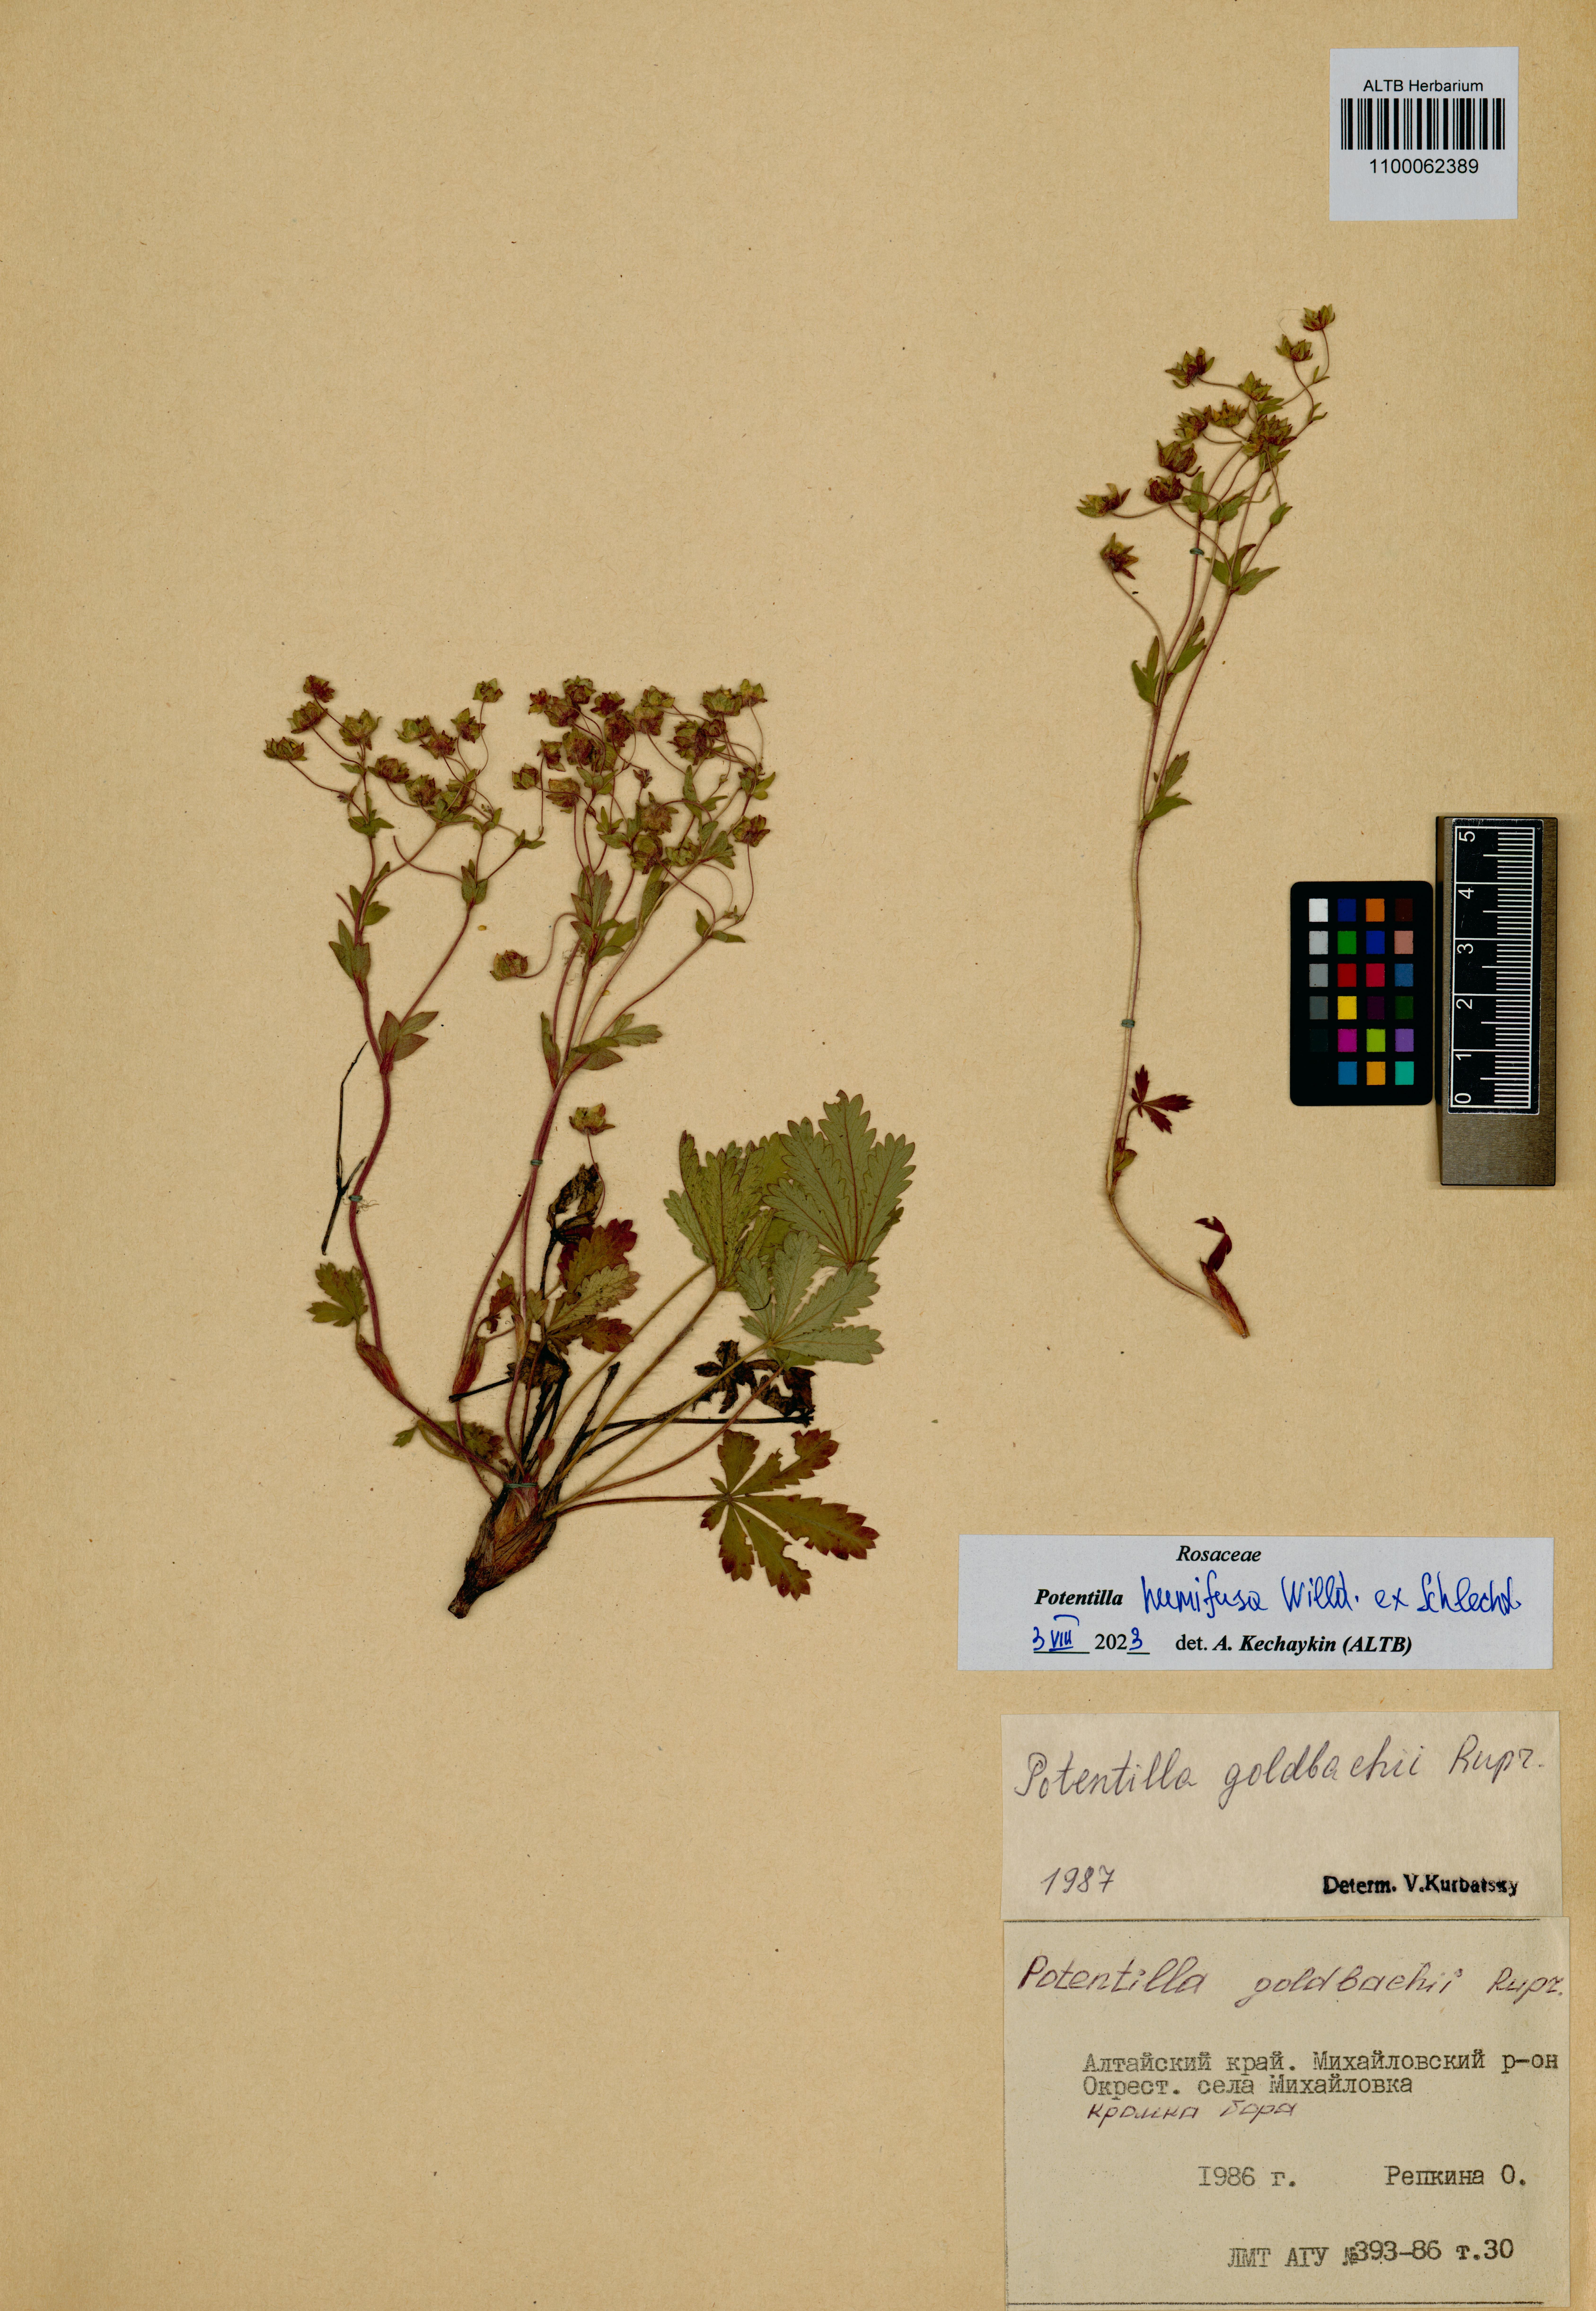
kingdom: Plantae
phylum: Tracheophyta
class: Magnoliopsida
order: Rosales
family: Rosaceae
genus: Potentilla
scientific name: Potentilla humifusa
